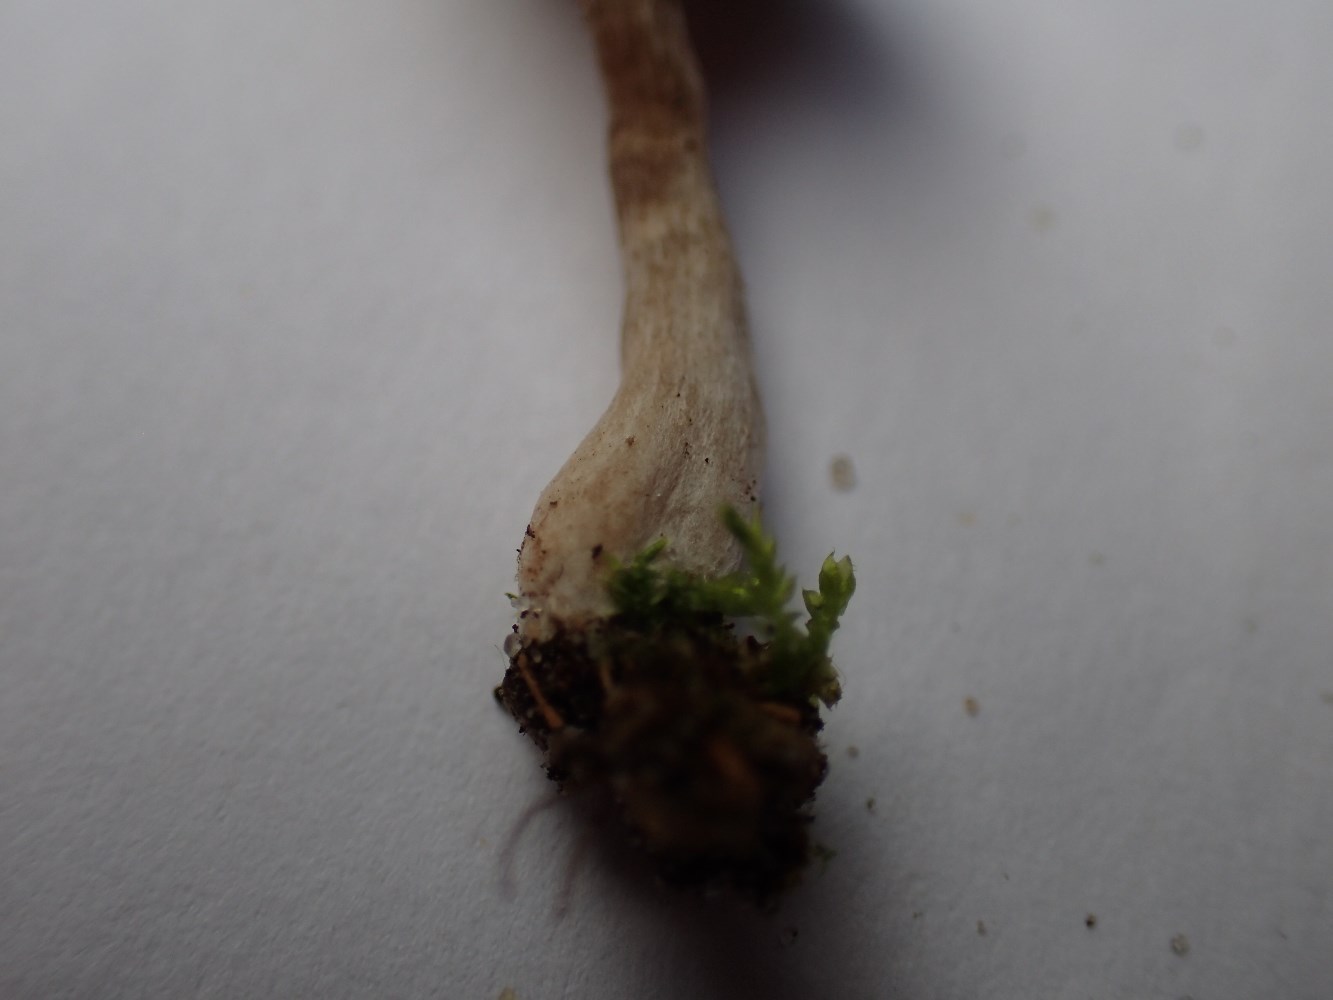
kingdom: Fungi
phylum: Basidiomycota
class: Agaricomycetes
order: Agaricales
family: Entolomataceae
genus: Entoloma
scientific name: Entoloma undatum
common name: bæltet rødblad
